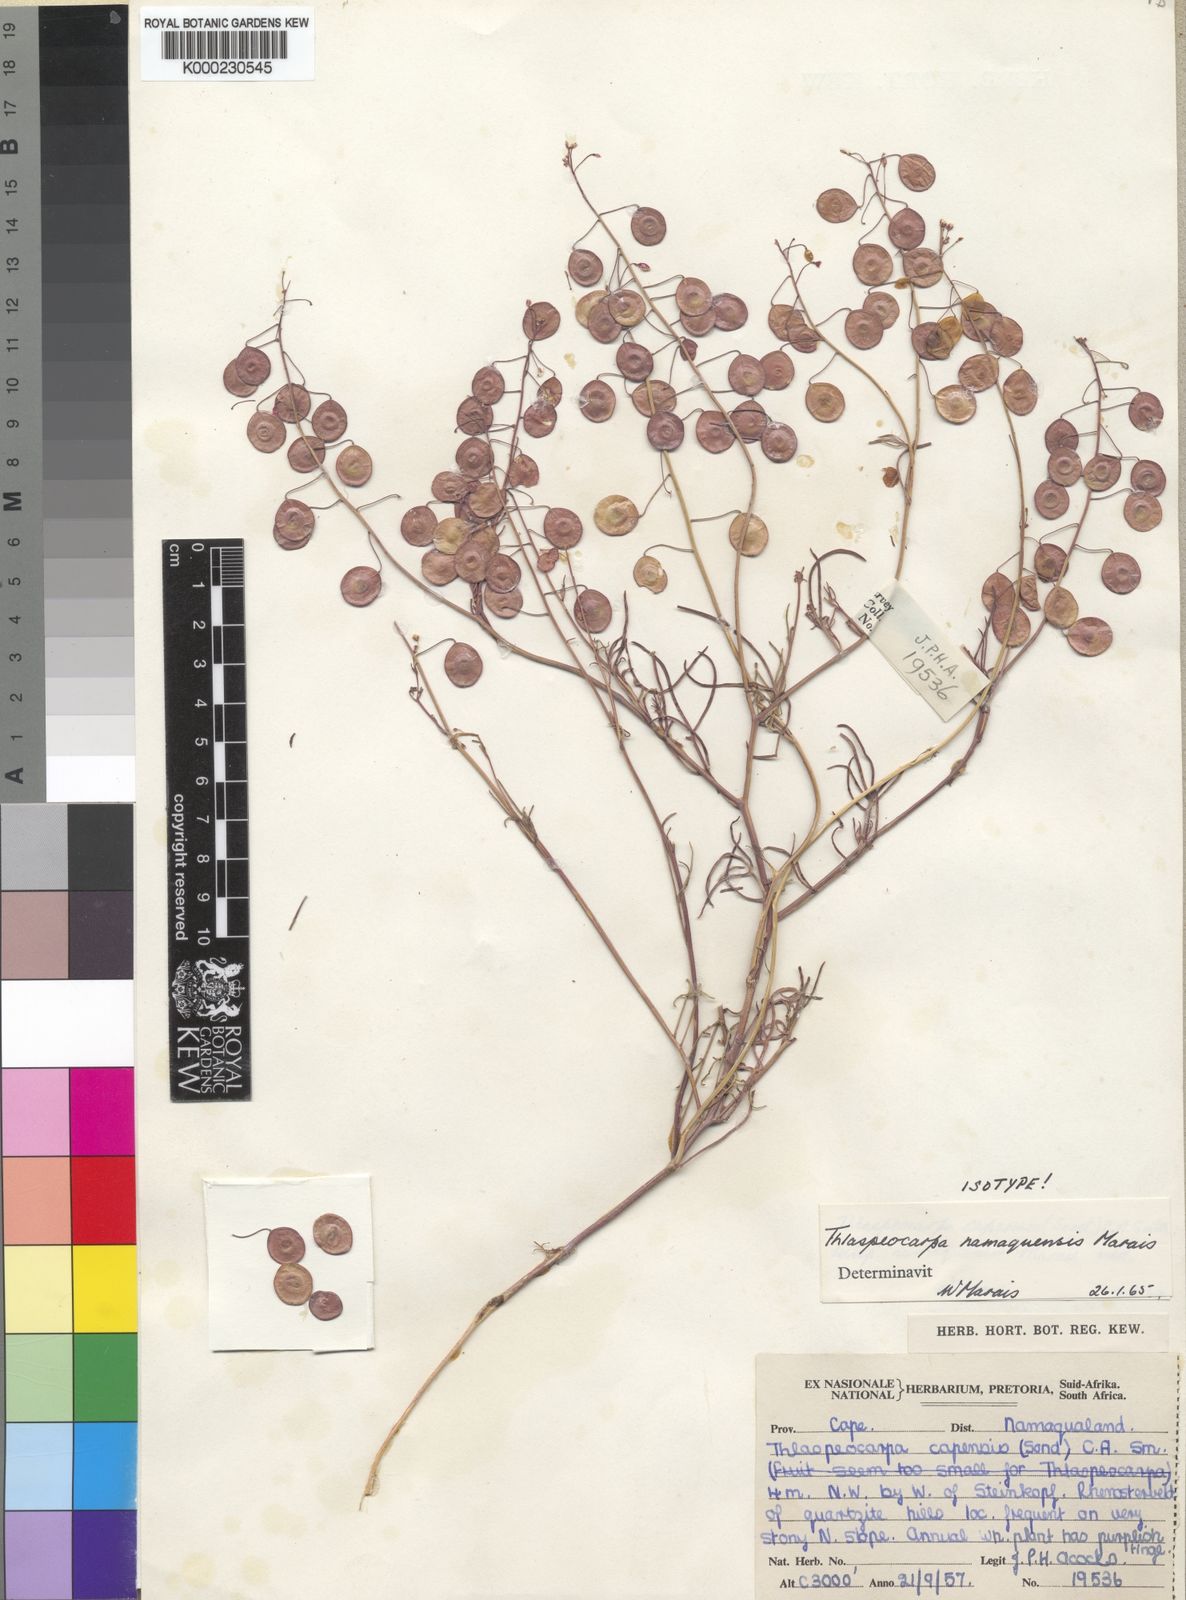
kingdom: Plantae
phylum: Tracheophyta
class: Magnoliopsida
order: Brassicales
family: Brassicaceae
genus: Heliophila
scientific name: Heliophila namaquensis
